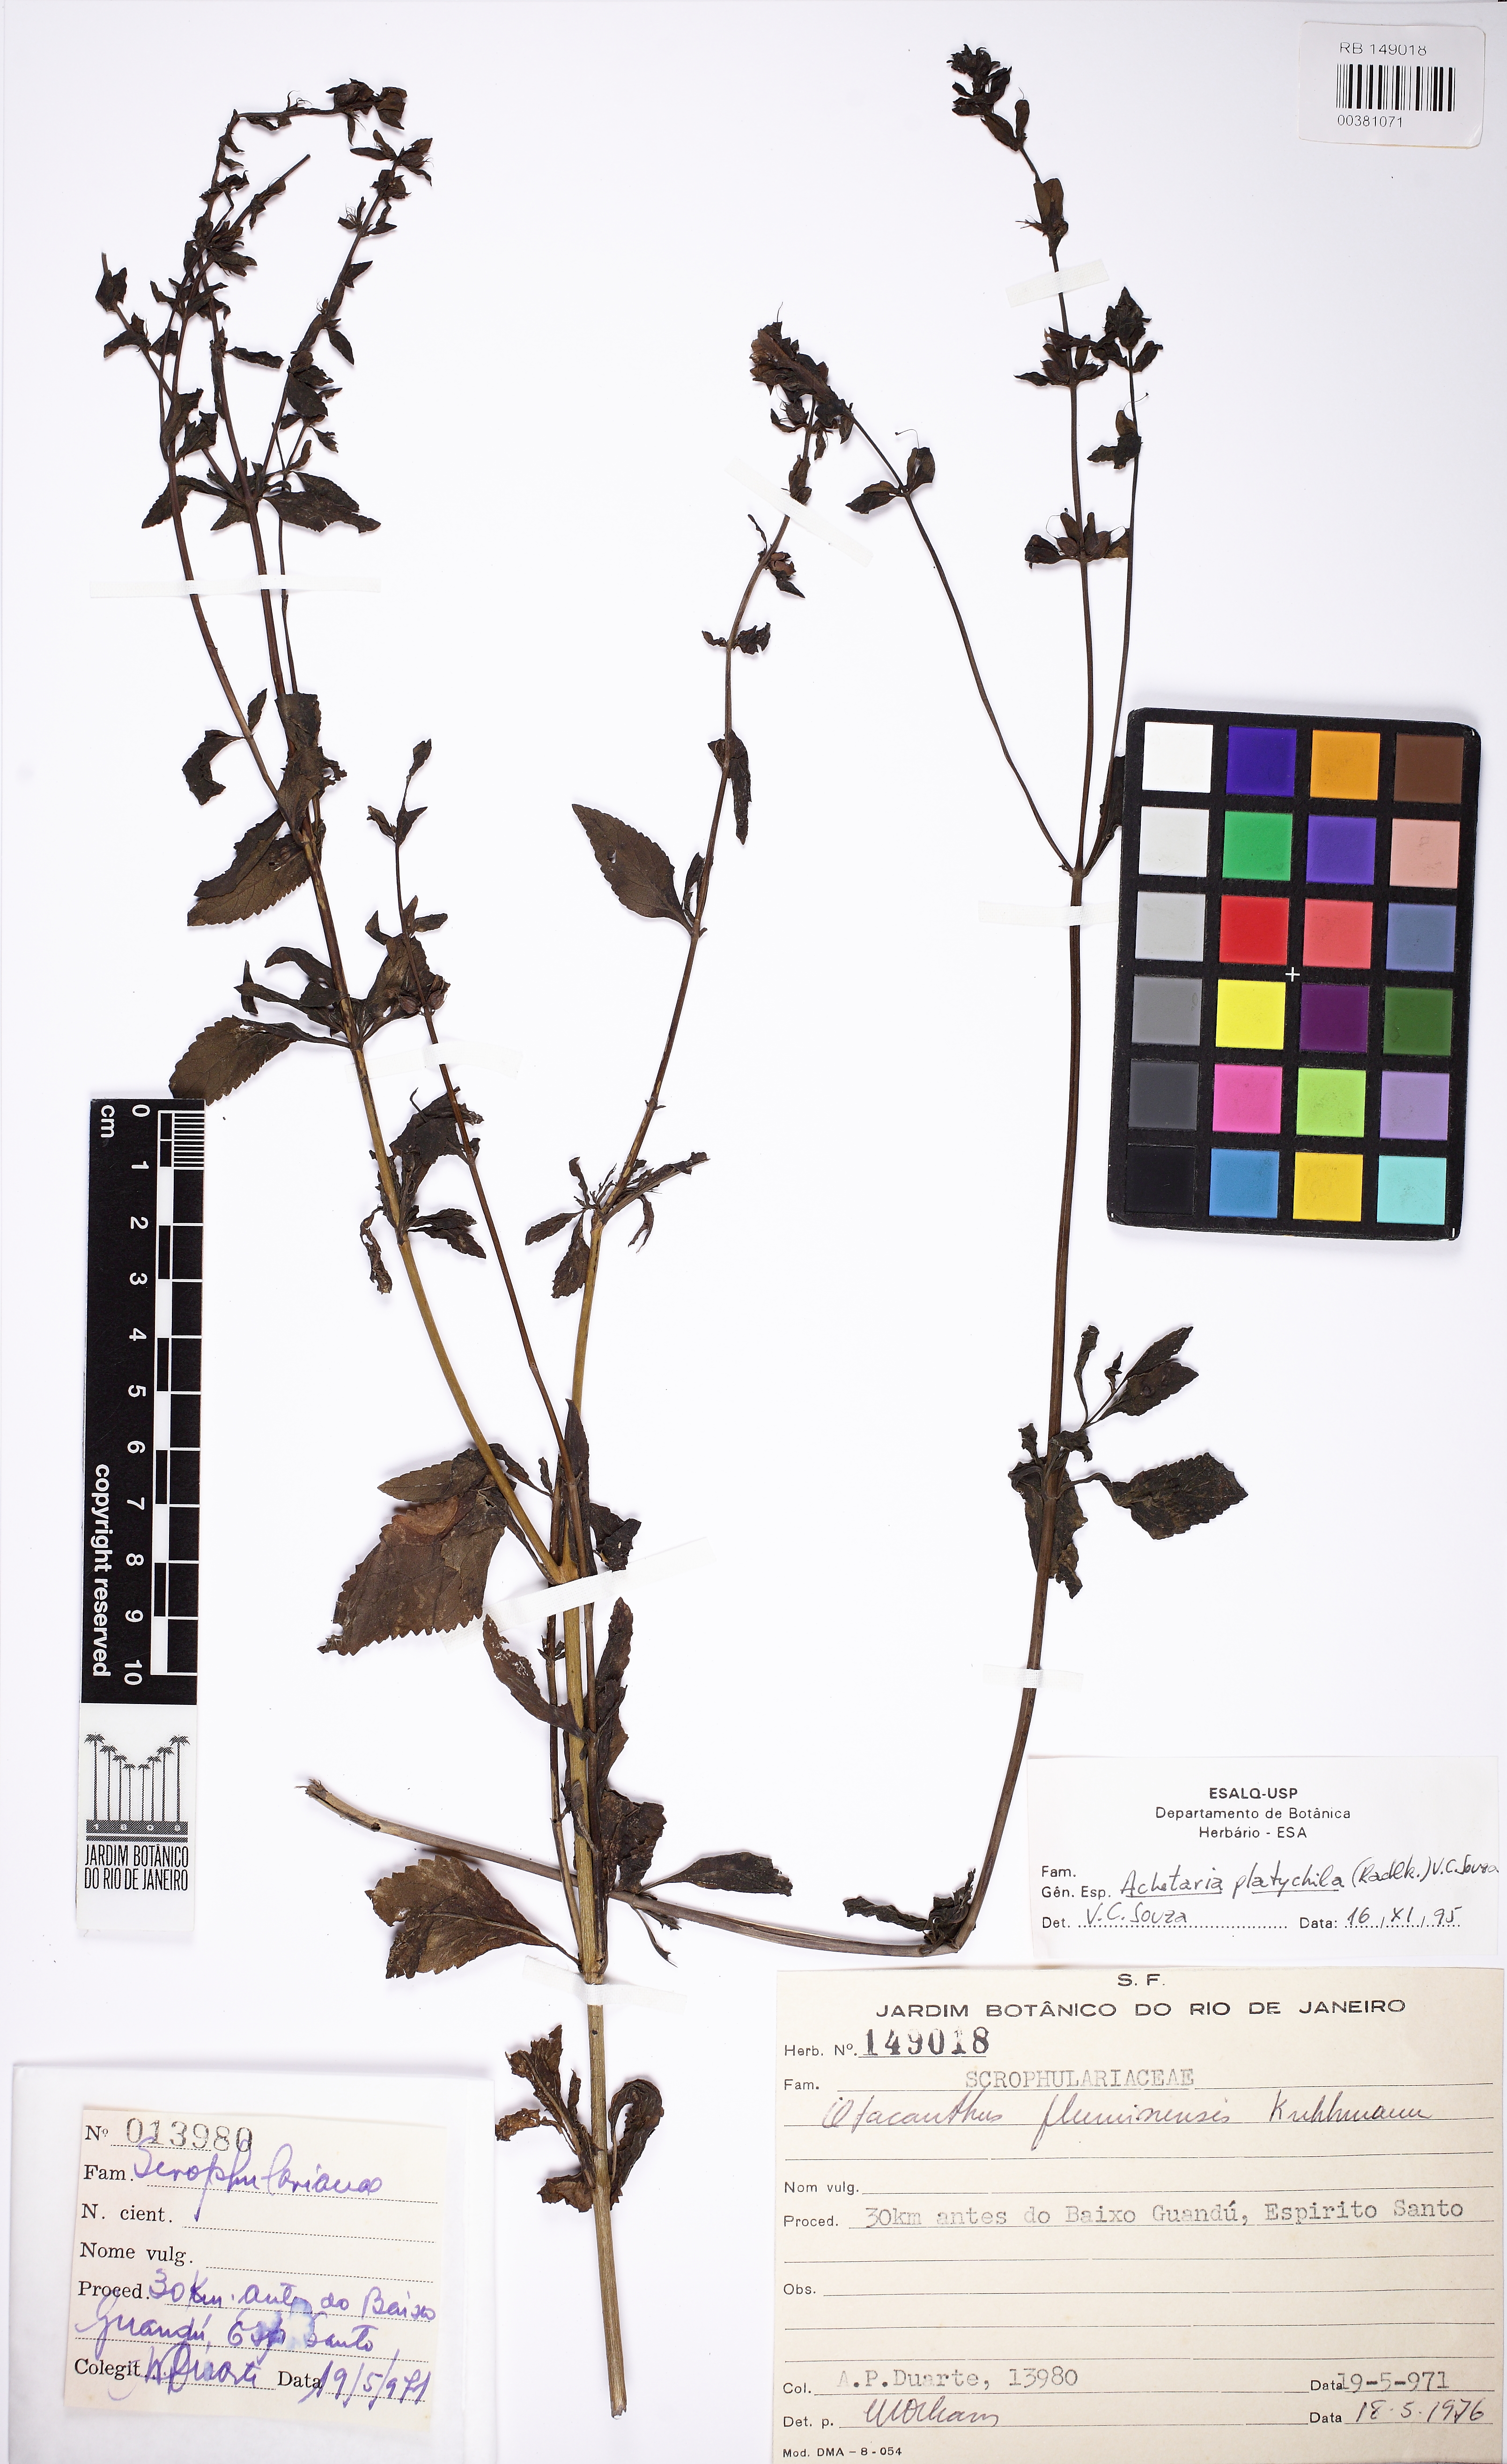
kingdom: Plantae
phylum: Tracheophyta
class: Magnoliopsida
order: Lamiales
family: Plantaginaceae
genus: Matourea
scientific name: Matourea
